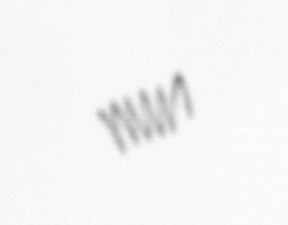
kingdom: Chromista
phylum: Ochrophyta
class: Bacillariophyceae
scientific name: Bacillariophyceae
